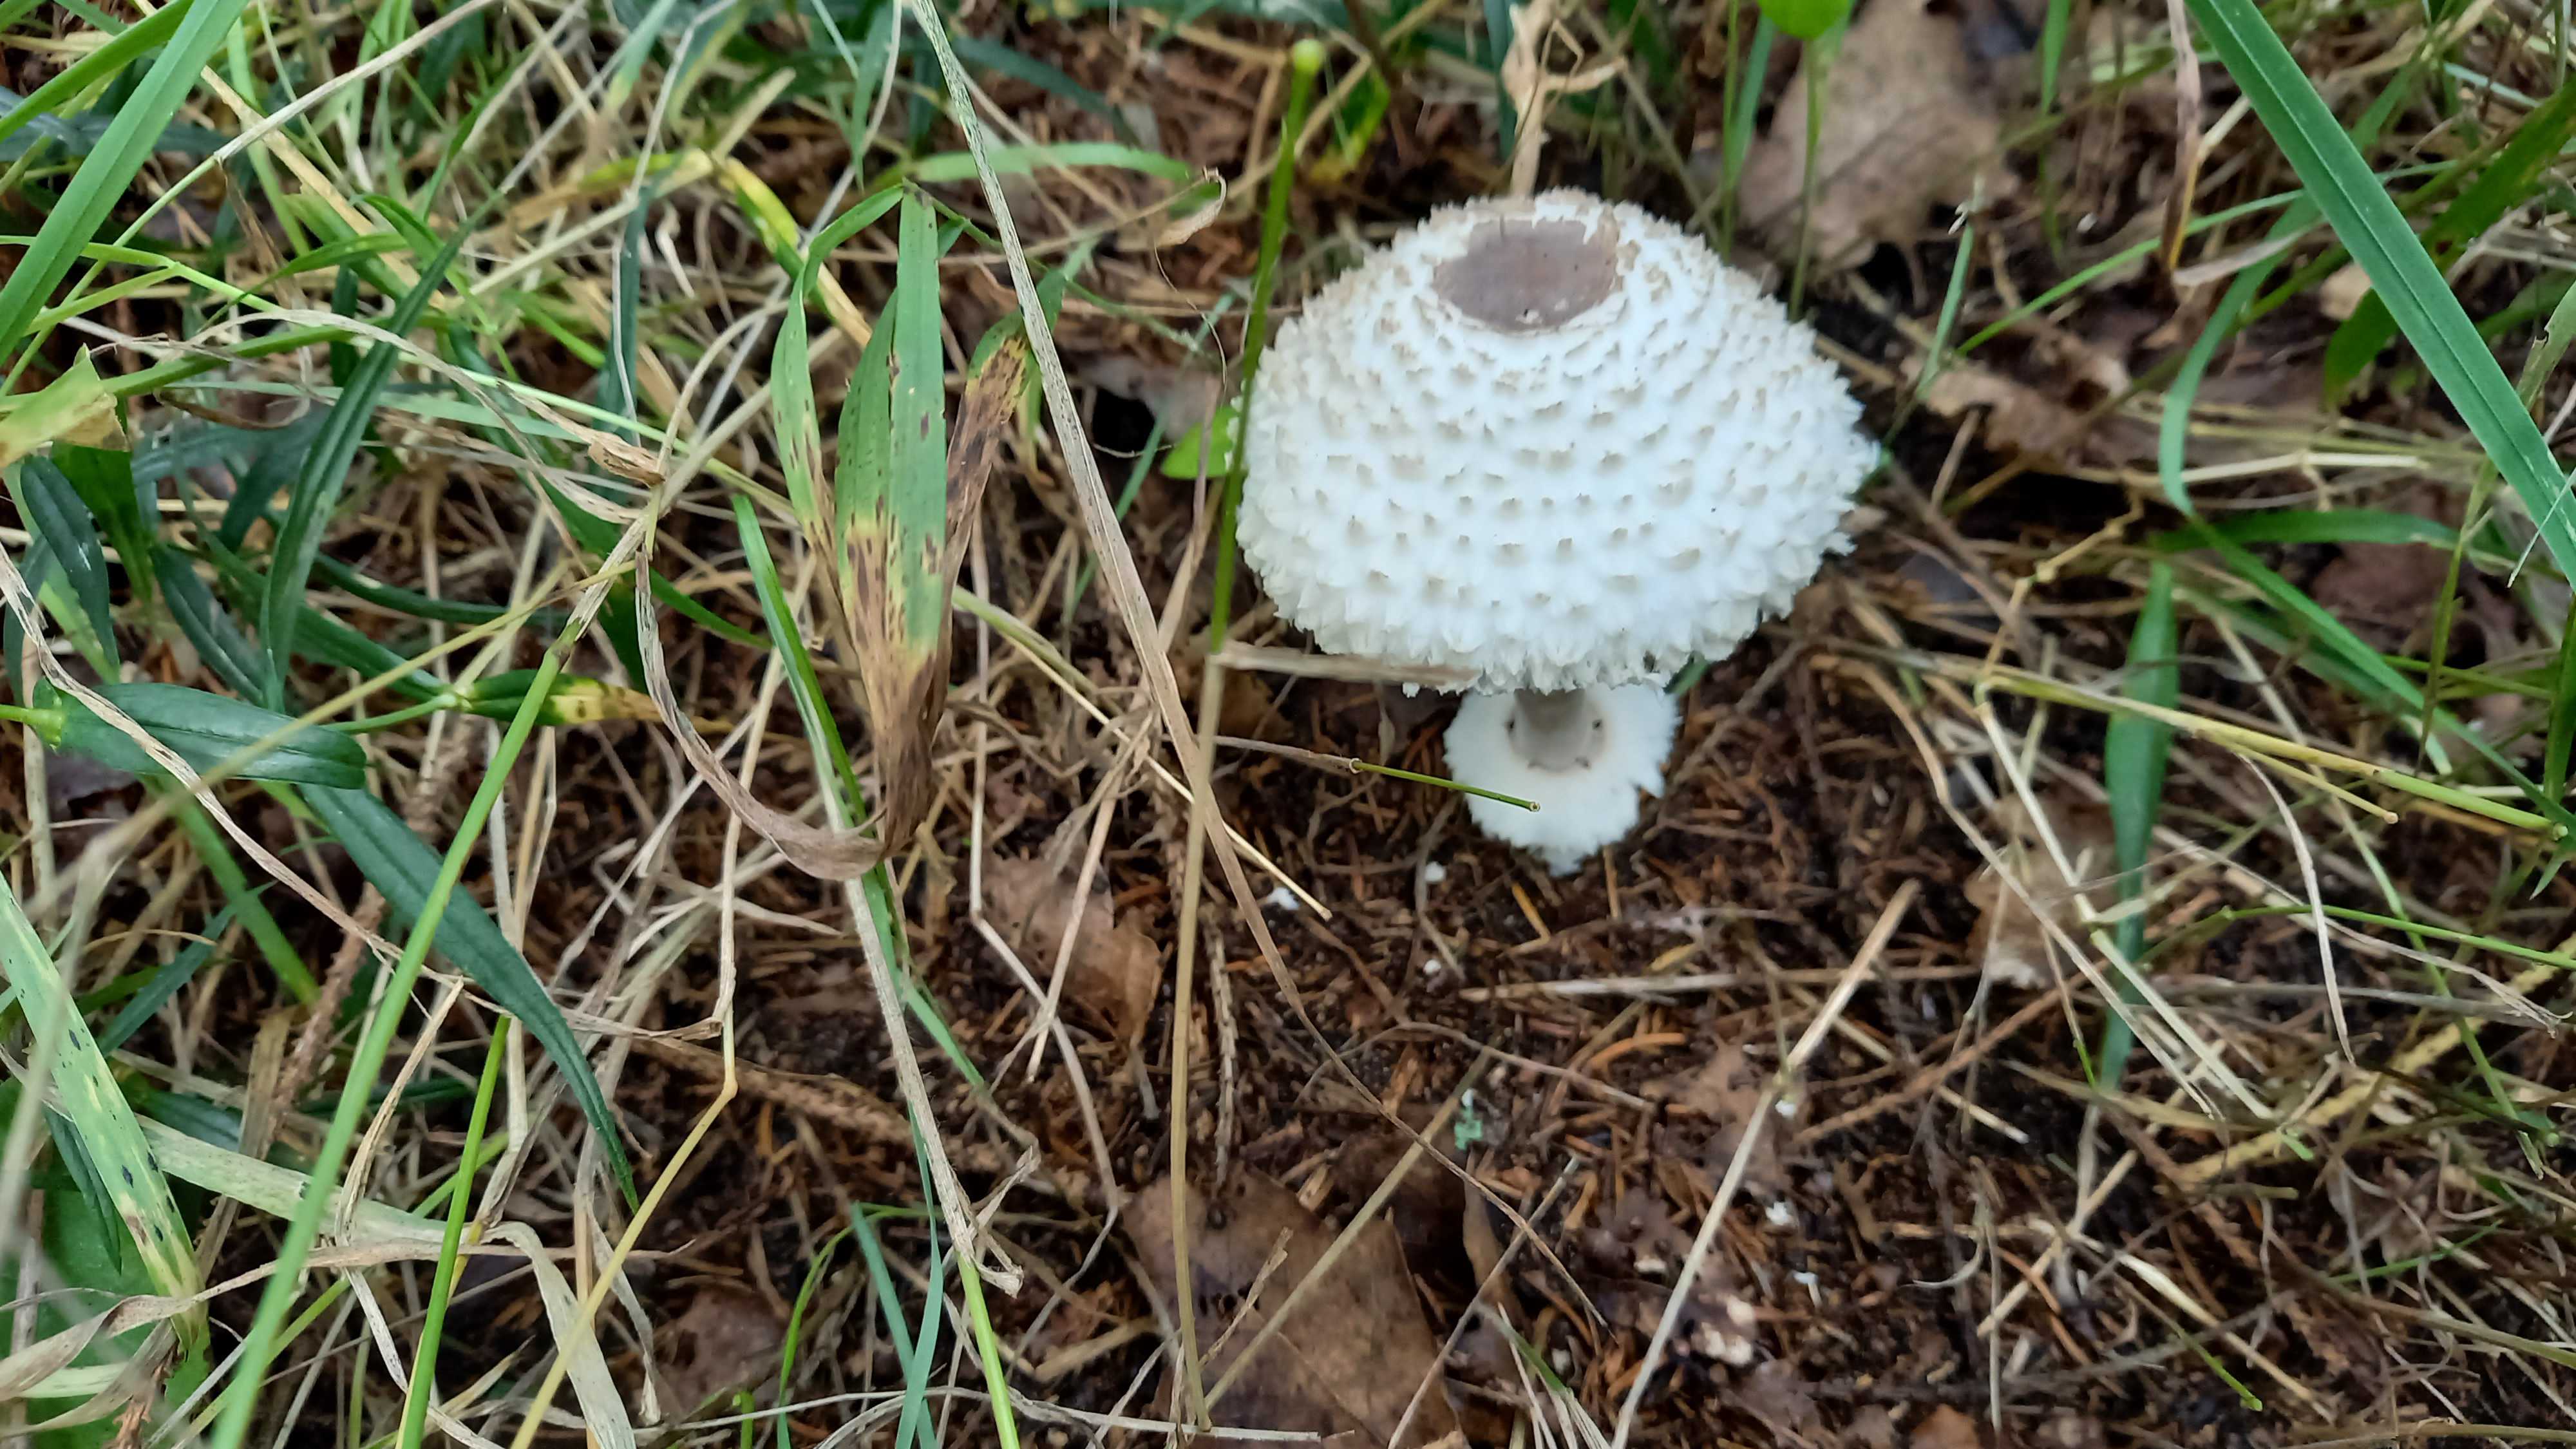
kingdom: Fungi
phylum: Basidiomycota
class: Agaricomycetes
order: Agaricales
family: Agaricaceae
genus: Leucoagaricus
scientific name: Leucoagaricus nympharum
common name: gran-silkehat
